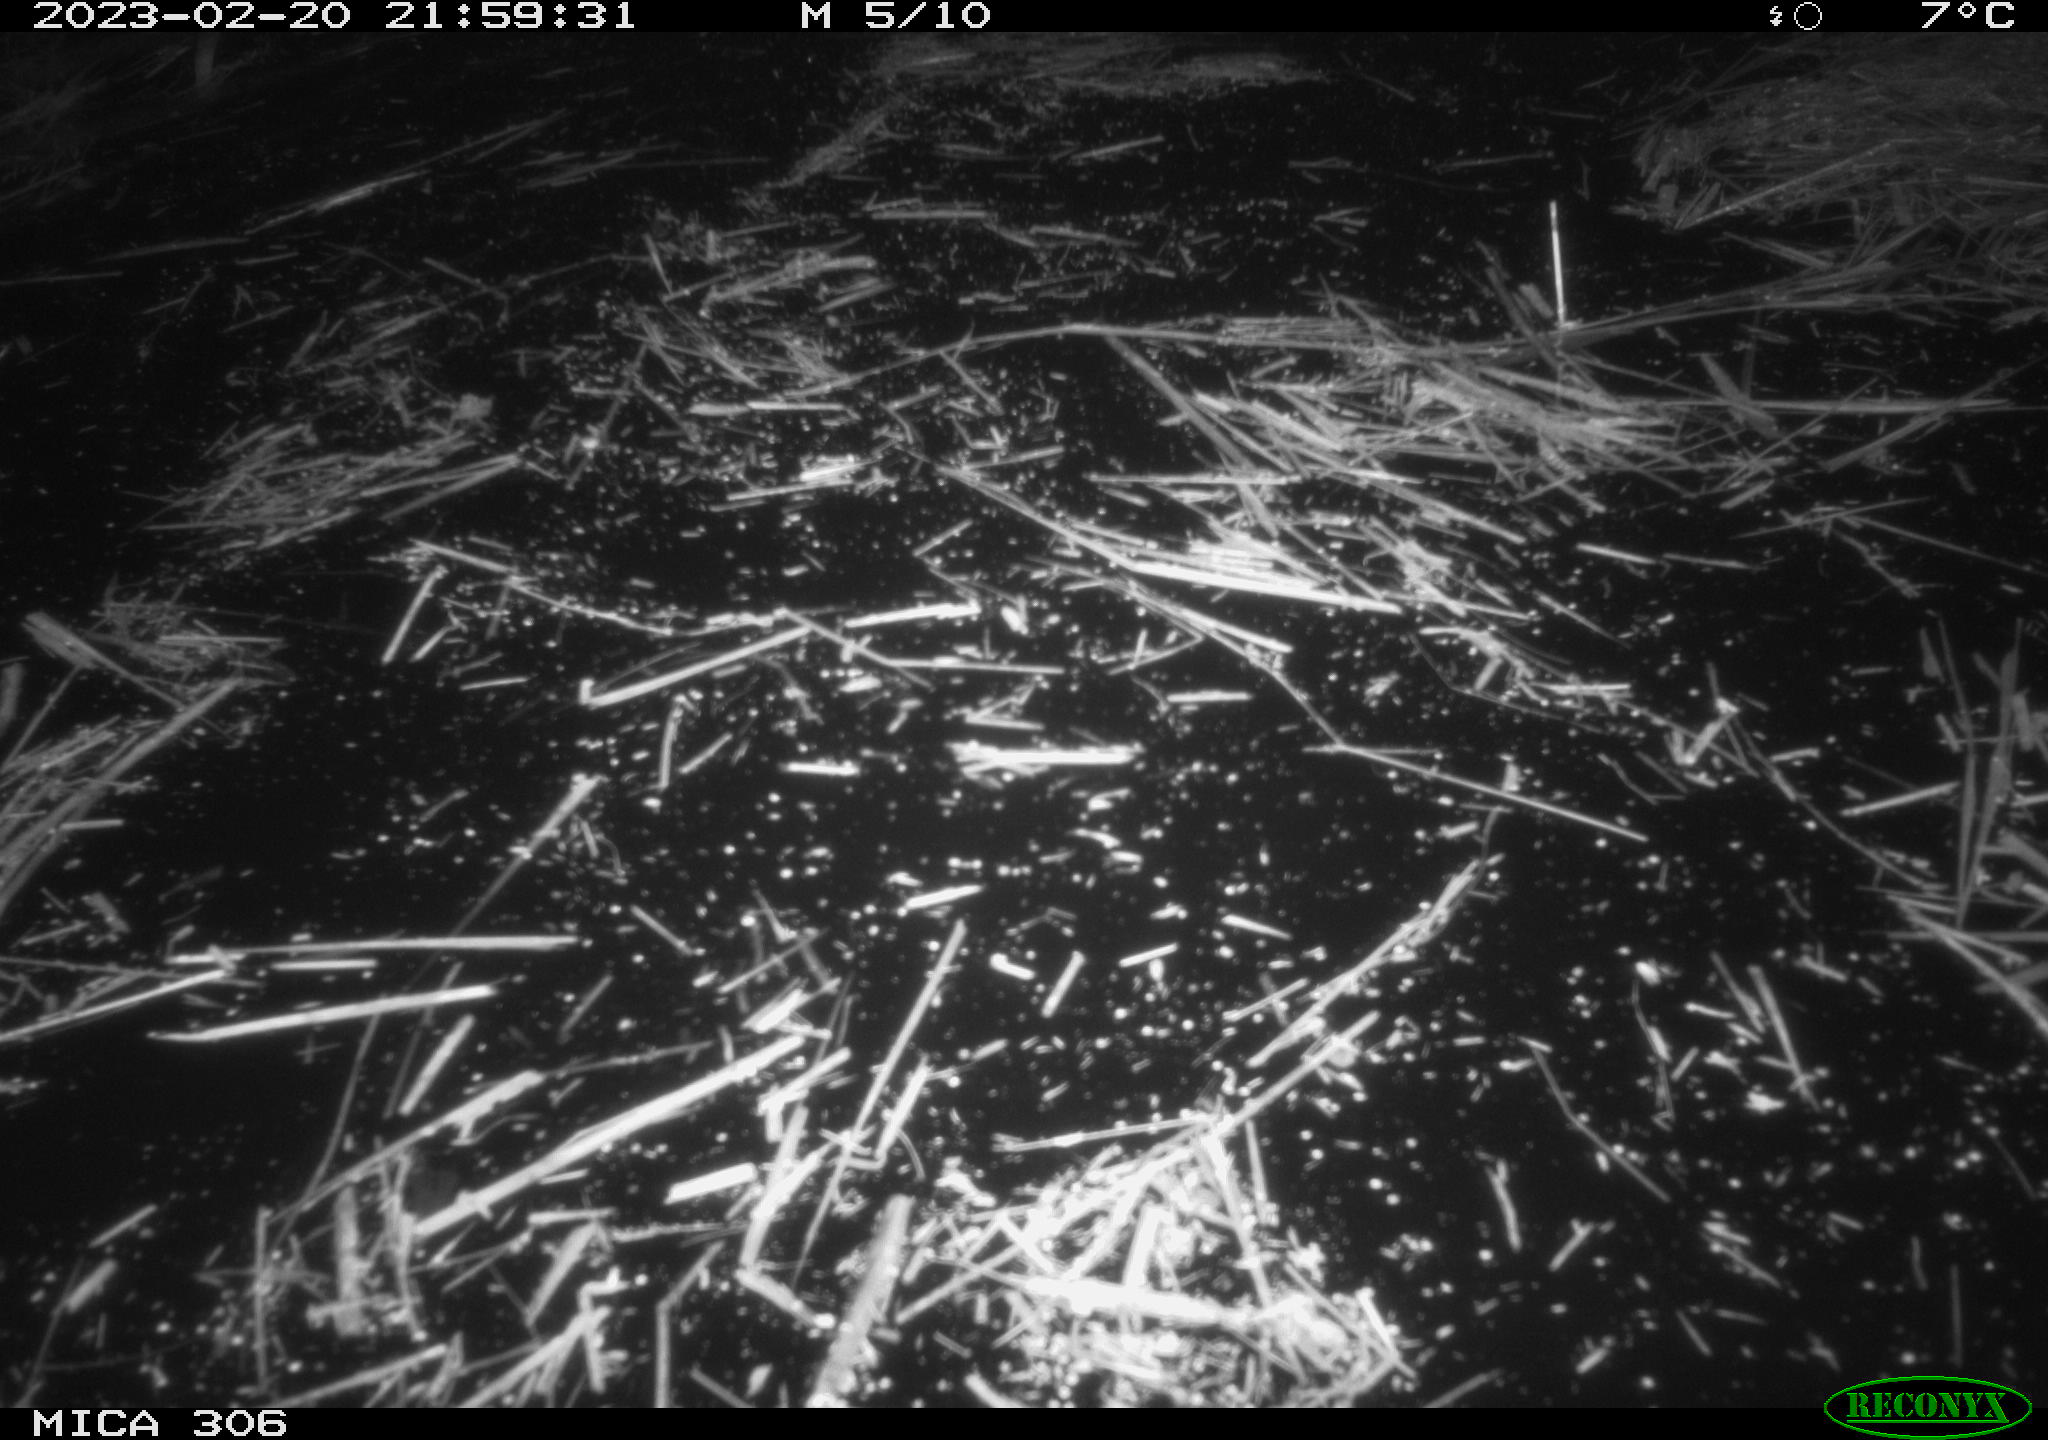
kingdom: Animalia
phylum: Chordata
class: Mammalia
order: Rodentia
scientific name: Rodentia
